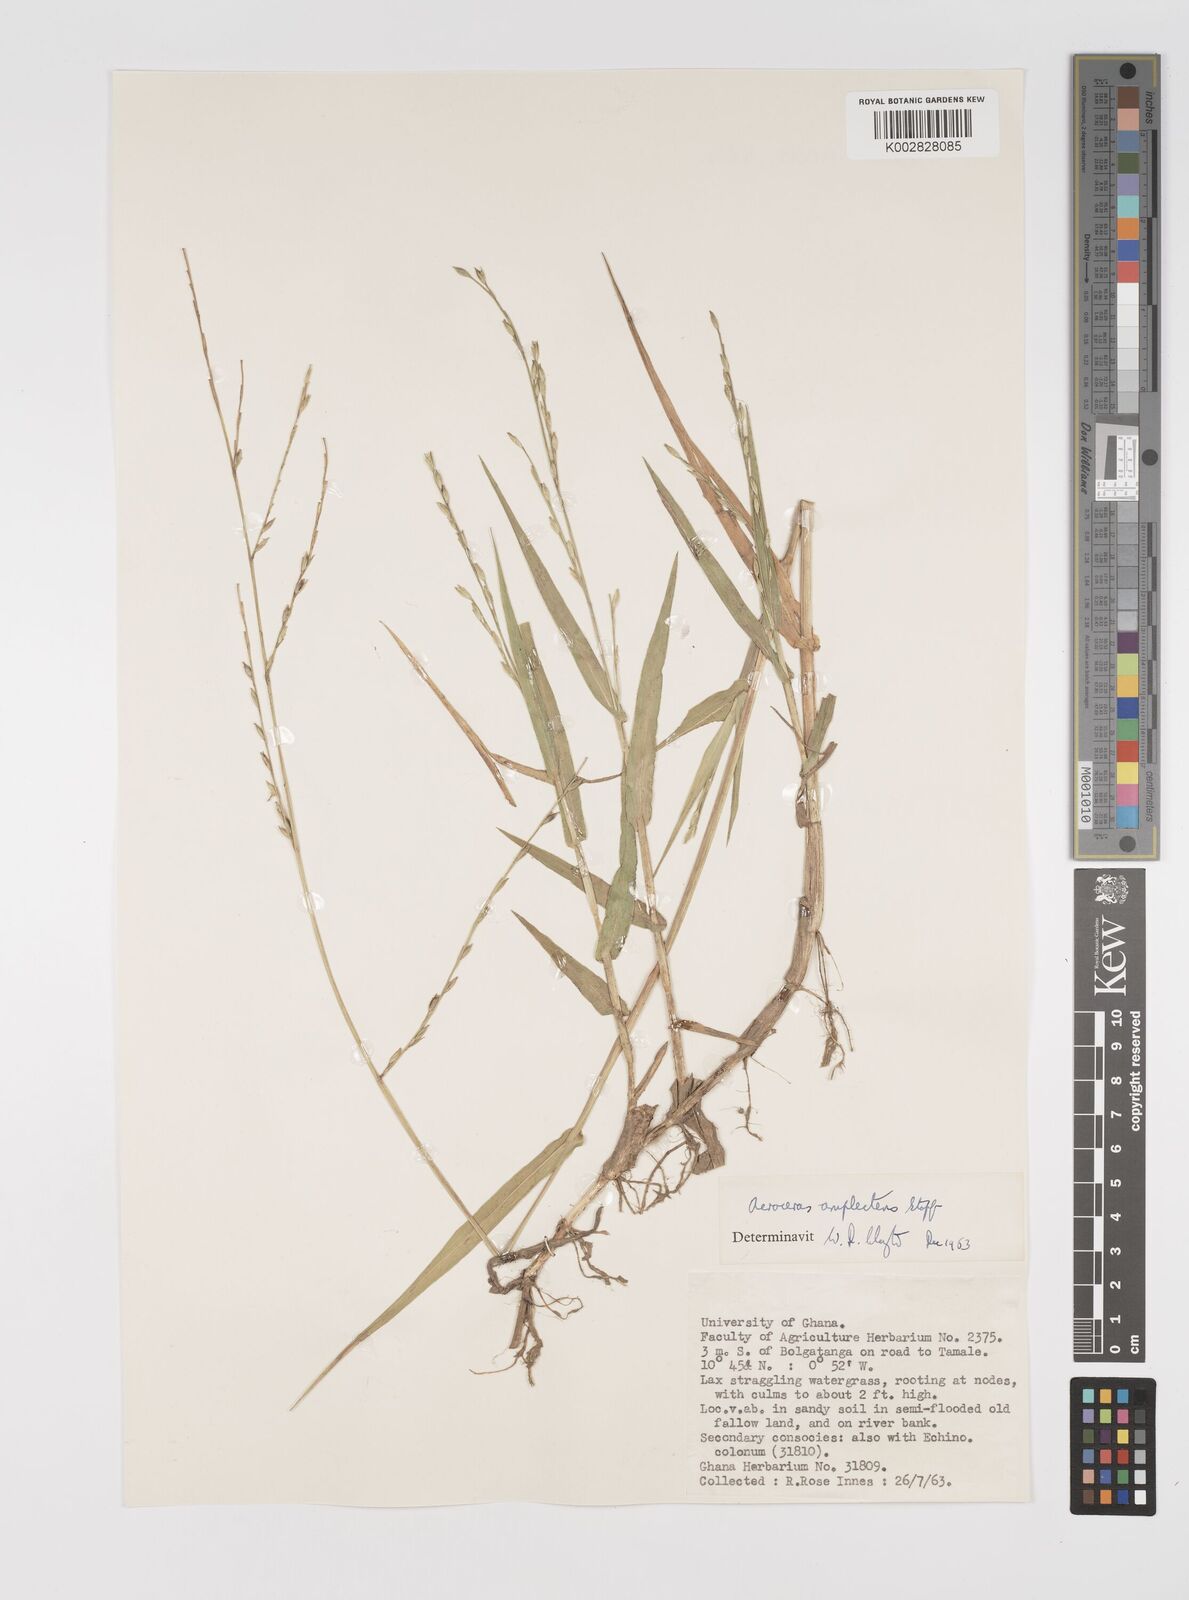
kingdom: Plantae
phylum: Tracheophyta
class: Liliopsida
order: Poales
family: Poaceae
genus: Acroceras
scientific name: Acroceras amplectens
